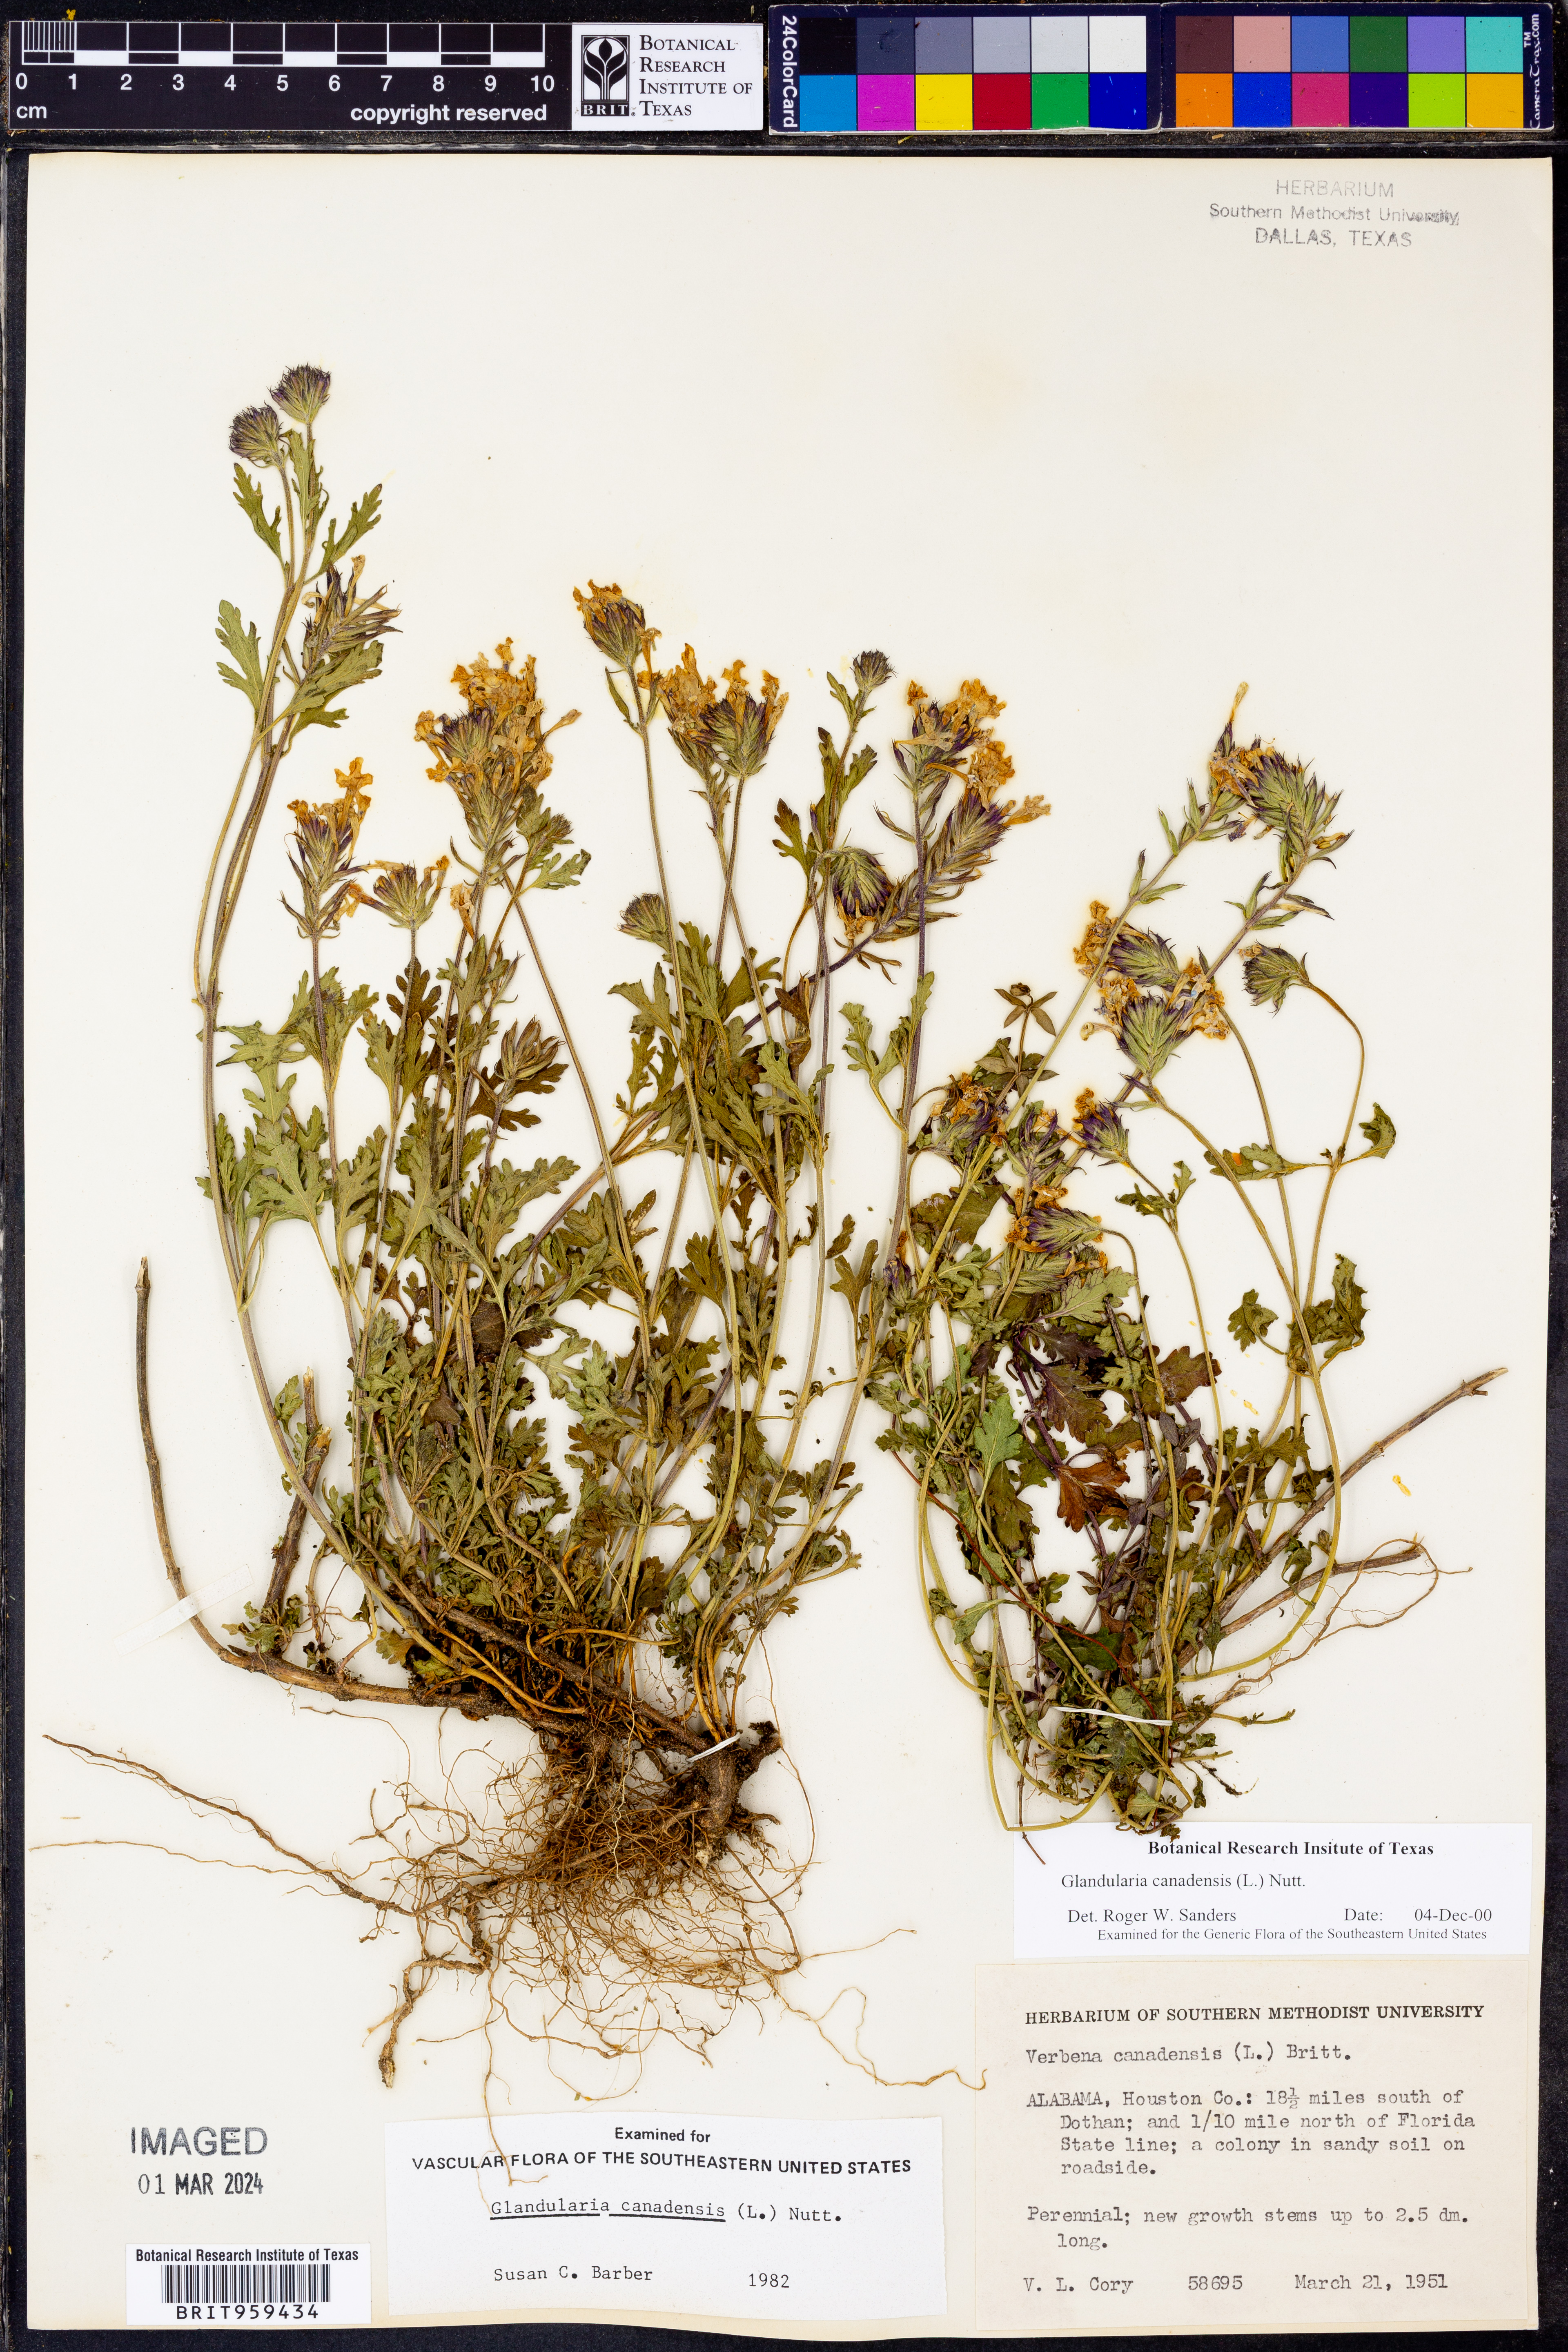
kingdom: Plantae
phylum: Tracheophyta
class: Magnoliopsida
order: Lamiales
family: Verbenaceae
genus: Verbena
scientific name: Verbena canadensis
